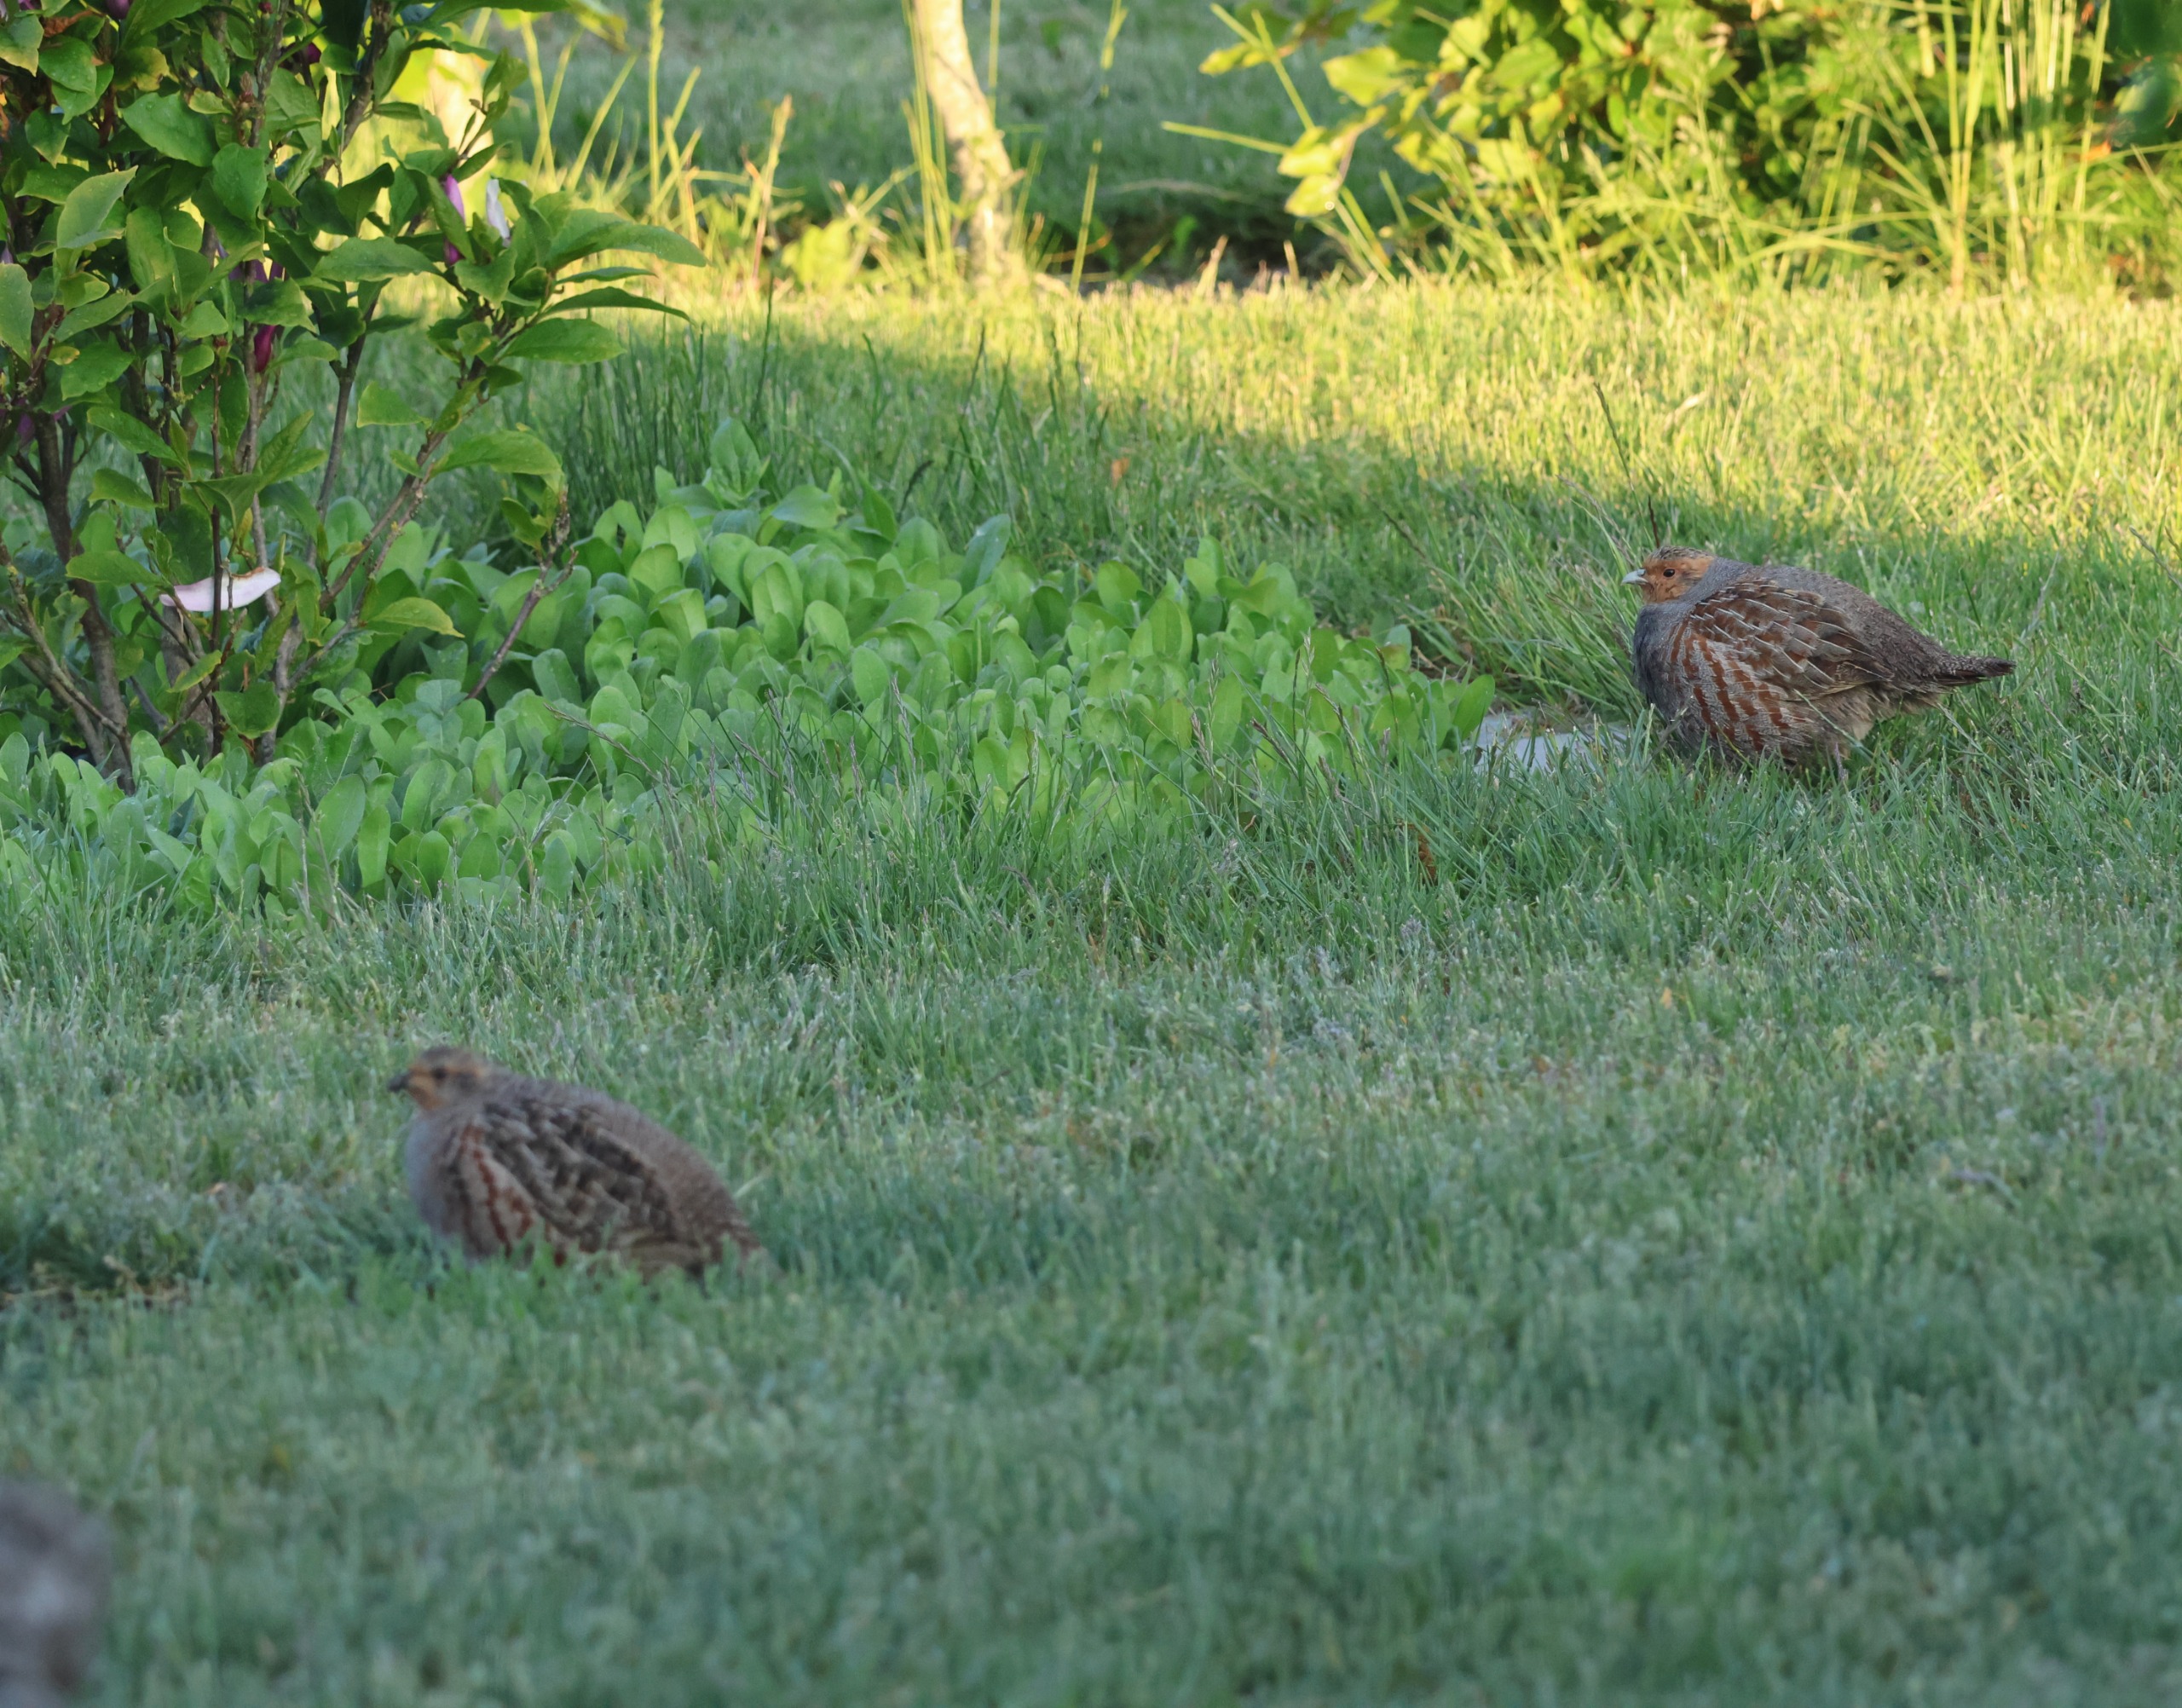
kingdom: Animalia
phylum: Chordata
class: Aves
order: Galliformes
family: Phasianidae
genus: Perdix
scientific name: Perdix perdix
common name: Agerhøne
